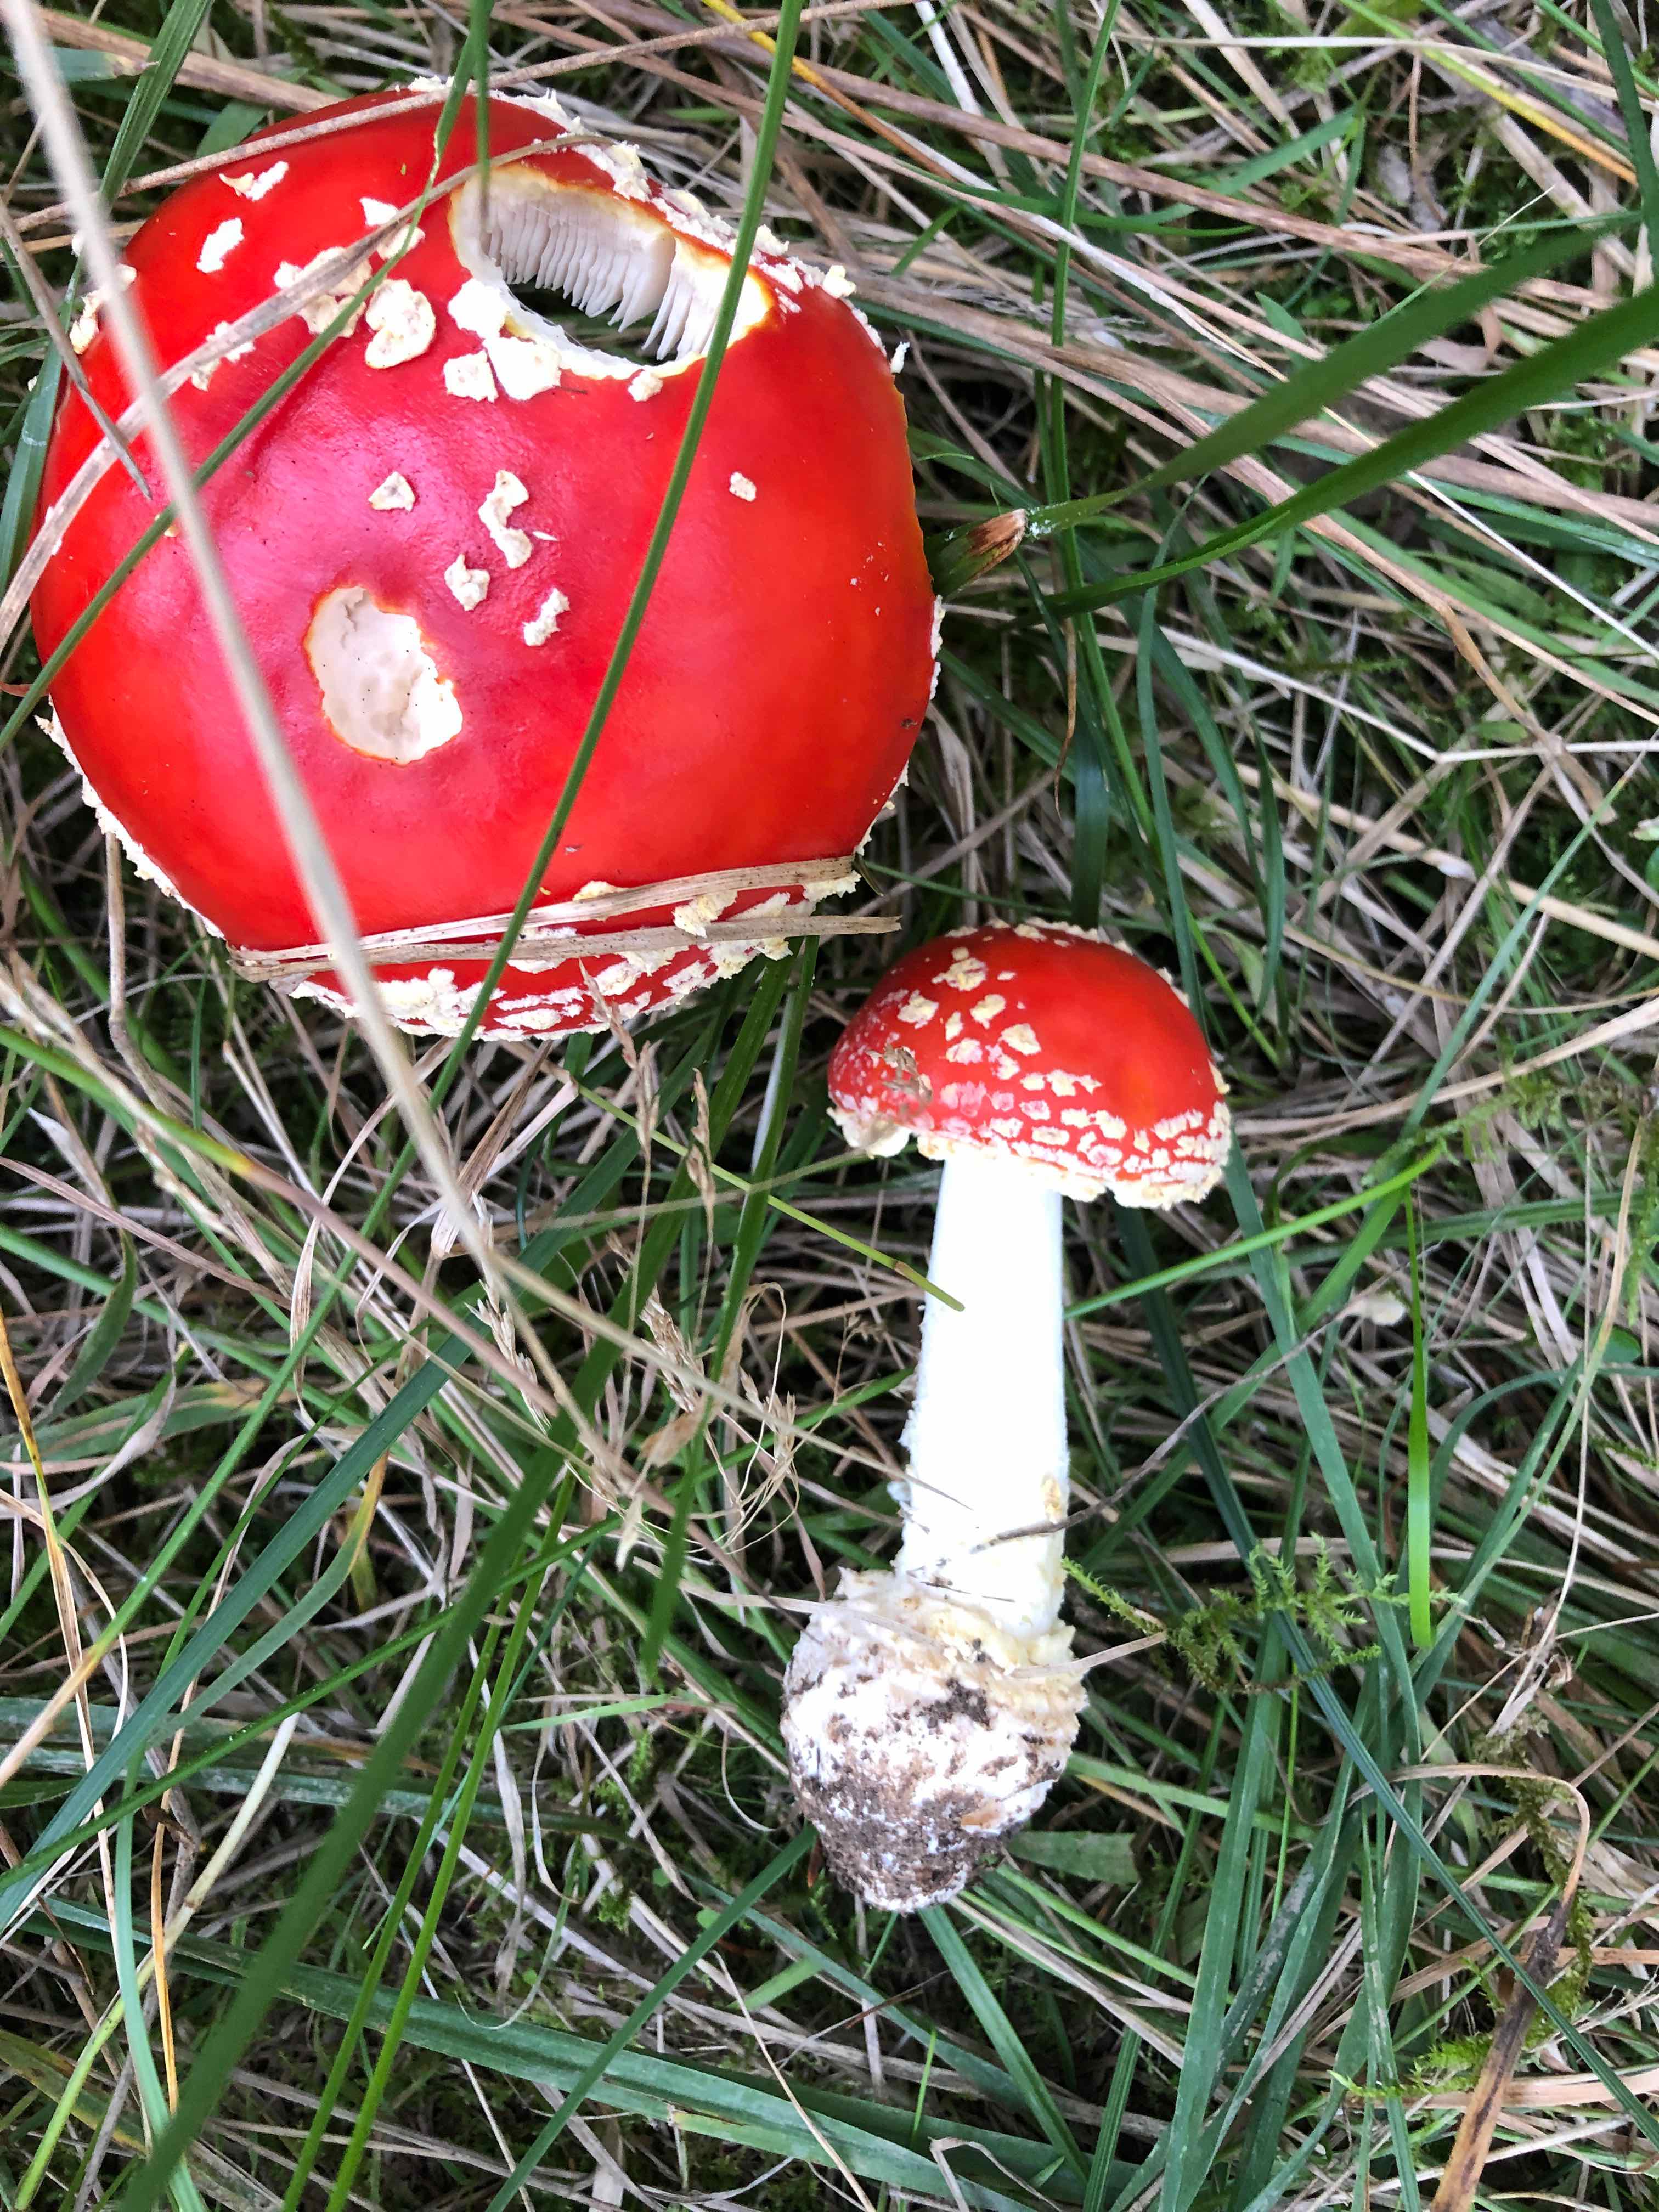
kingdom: Fungi
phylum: Basidiomycota
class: Agaricomycetes
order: Agaricales
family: Amanitaceae
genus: Amanita
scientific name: Amanita muscaria
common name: rød fluesvamp
